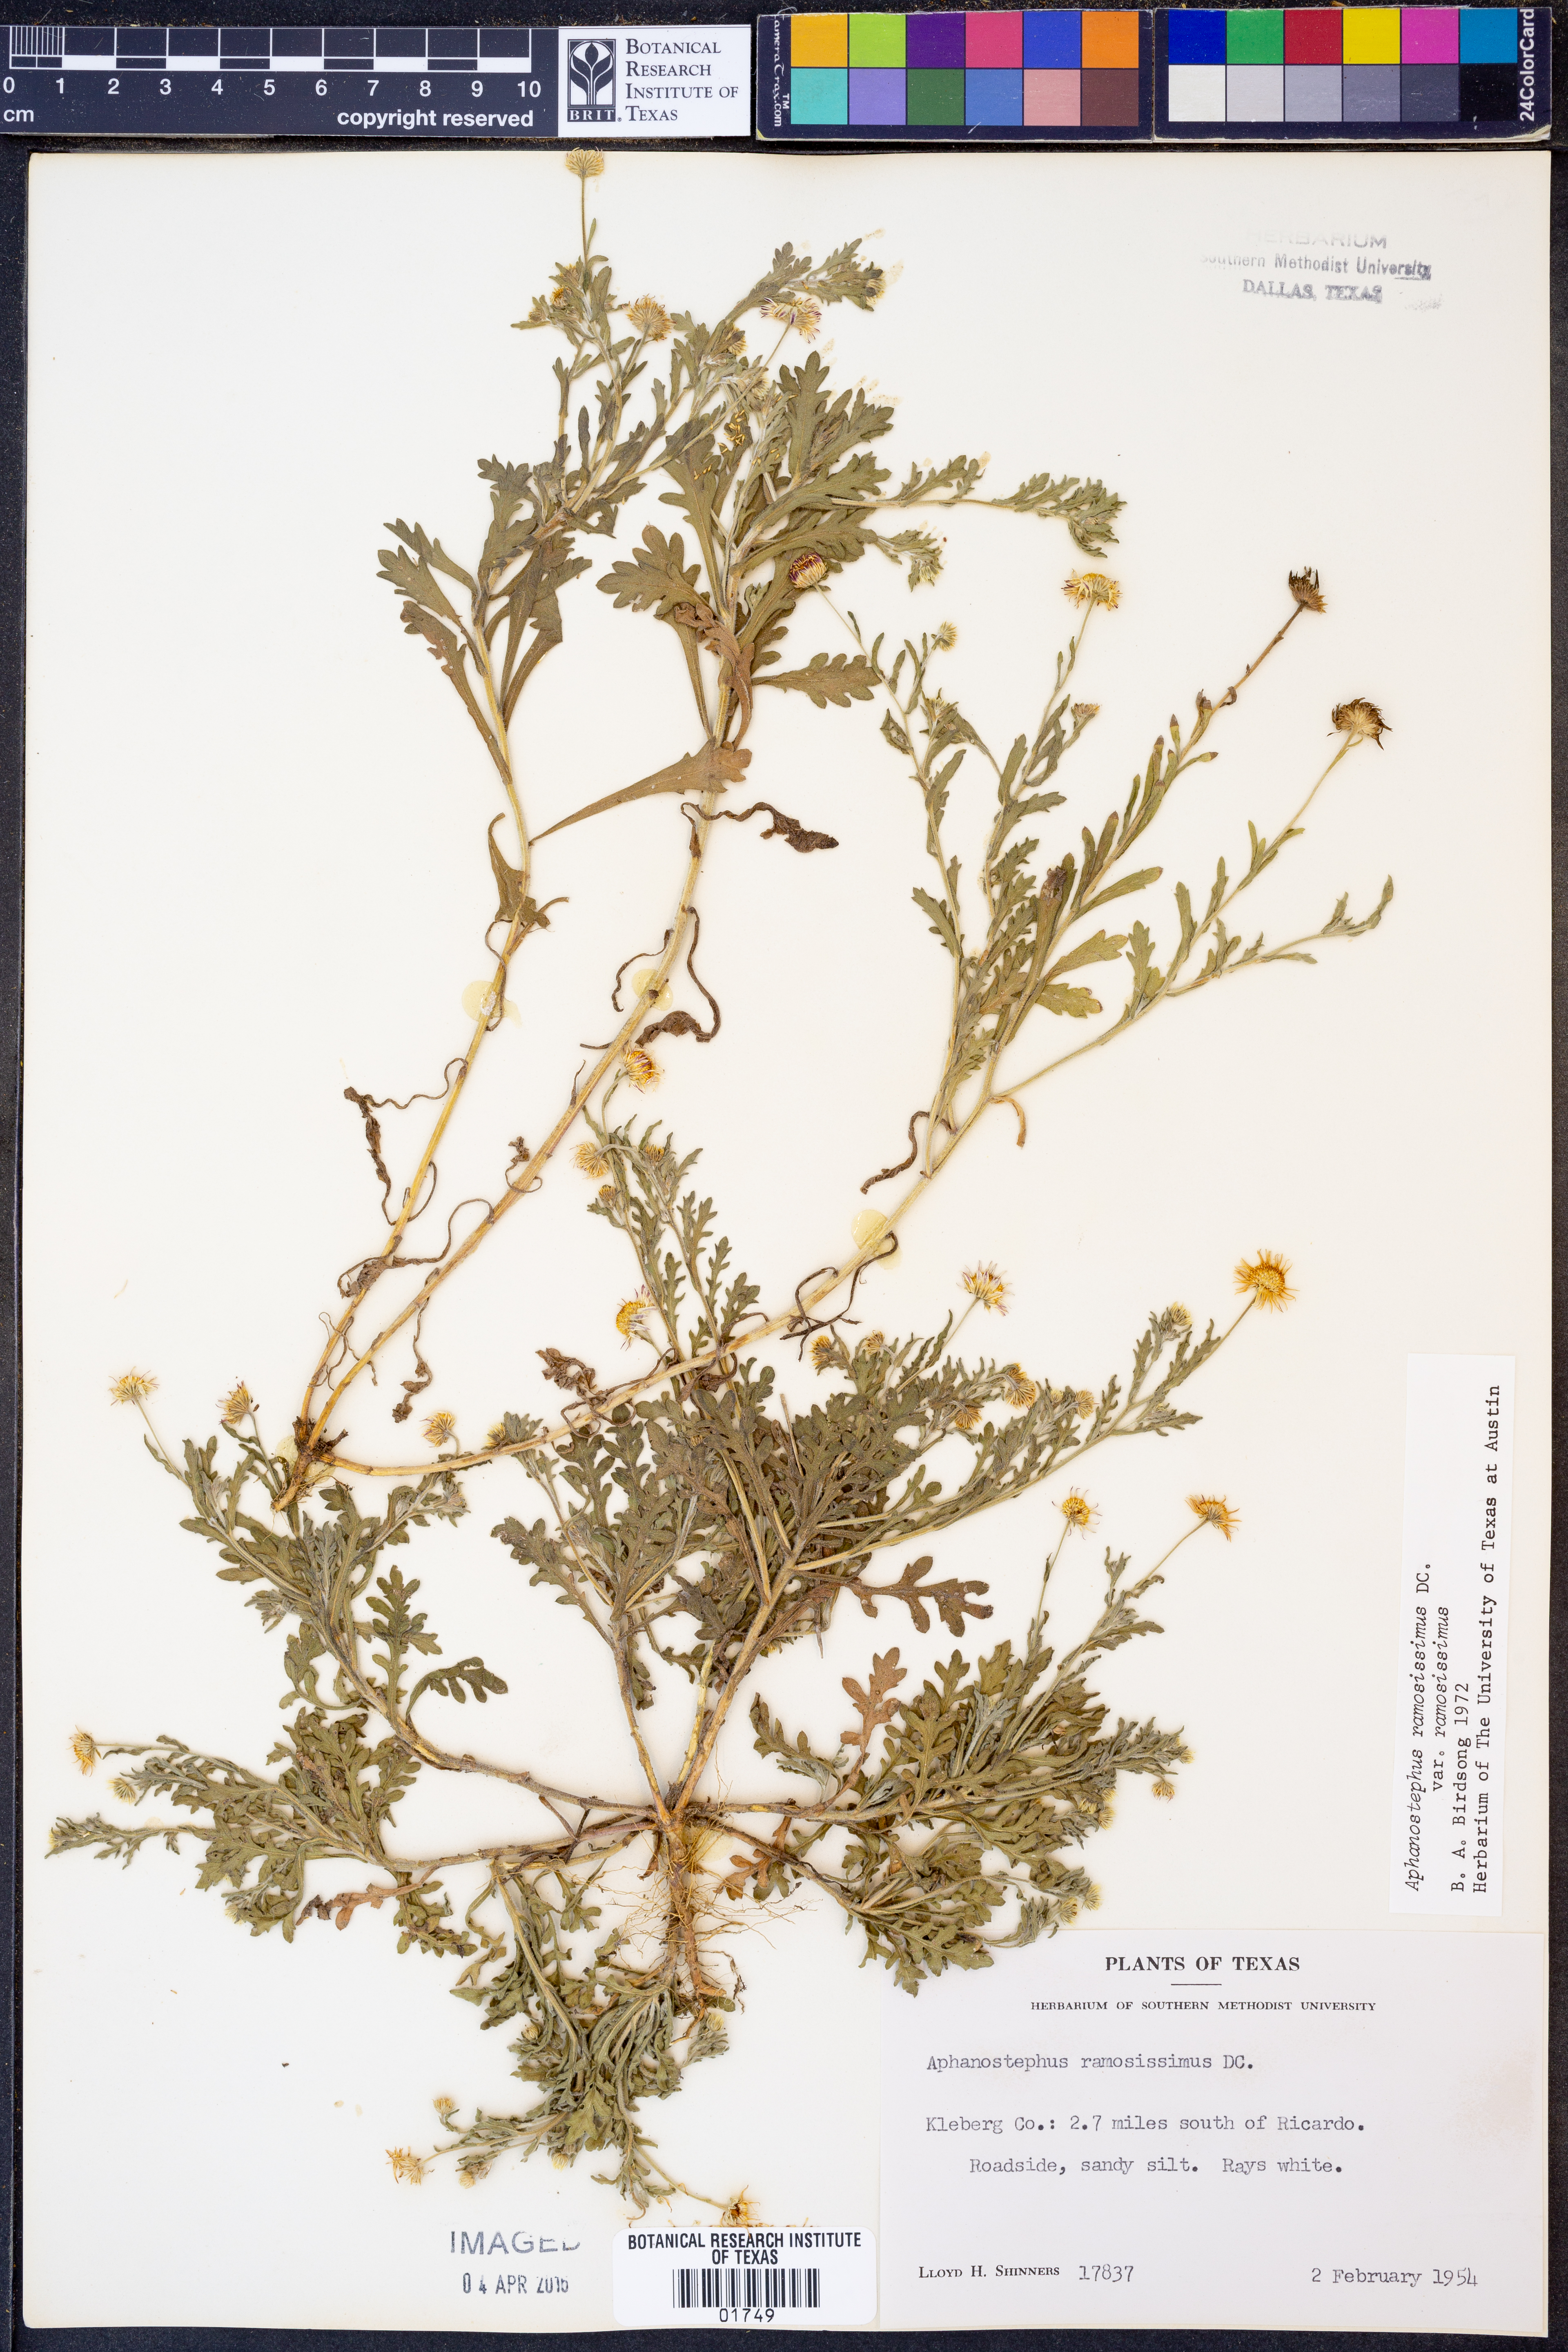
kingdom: Plantae
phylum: Tracheophyta
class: Magnoliopsida
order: Asterales
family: Asteraceae
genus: Aphanostephus
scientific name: Aphanostephus ramosissimus
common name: Plains lazy daisy
